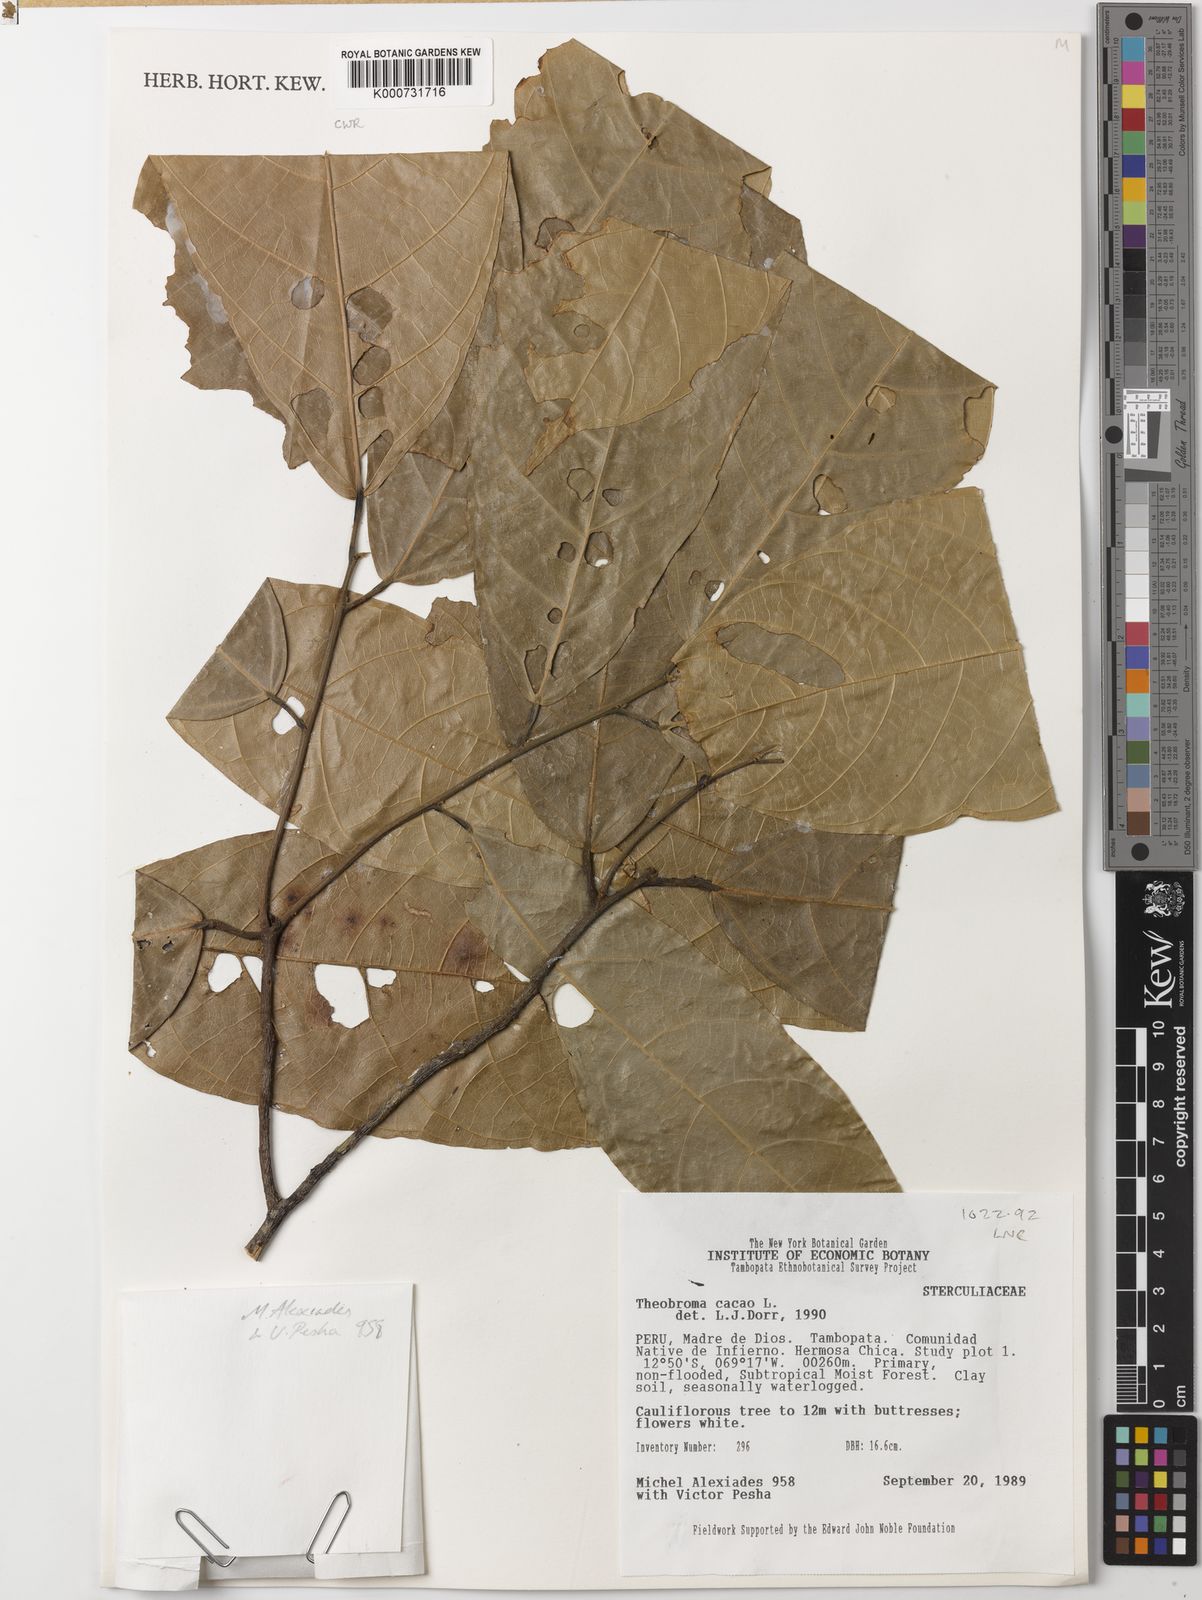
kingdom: Plantae
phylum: Tracheophyta
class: Magnoliopsida
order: Malvales
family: Malvaceae
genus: Theobroma
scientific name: Theobroma cacao
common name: Cocoa
